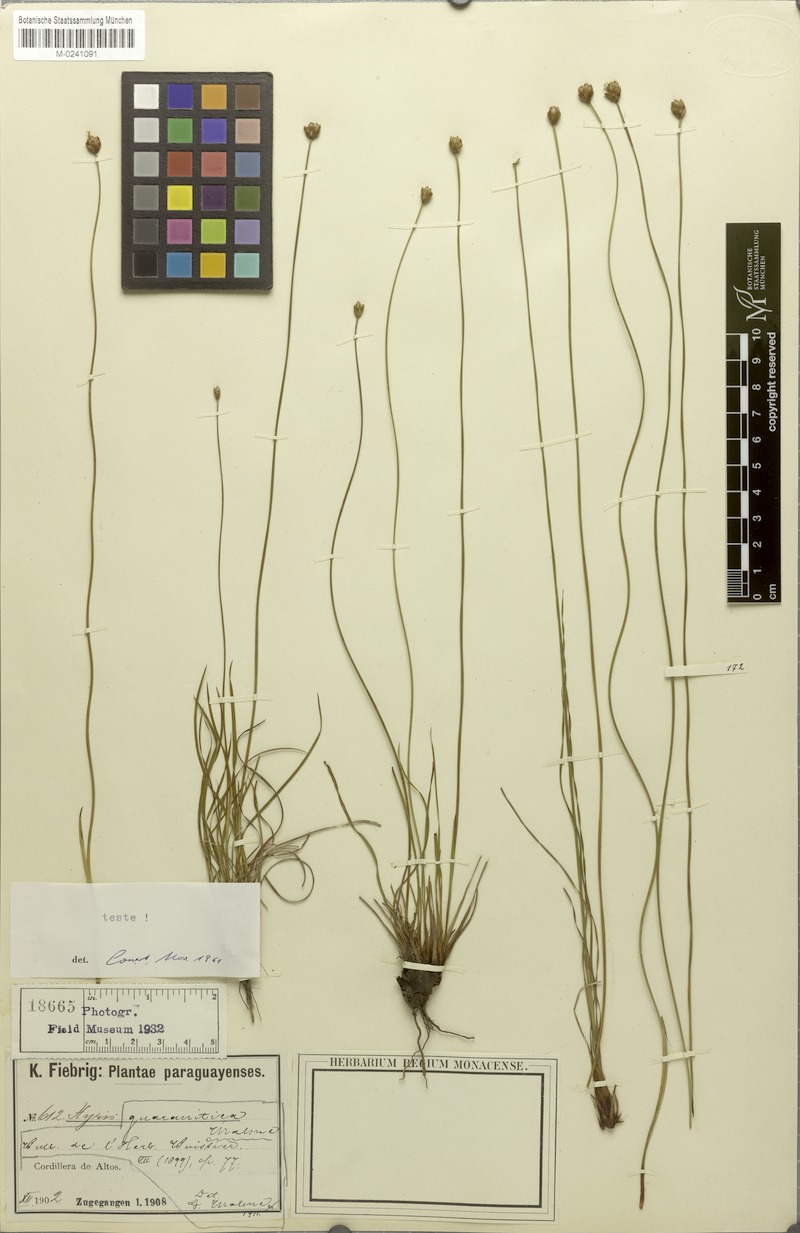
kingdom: Plantae
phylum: Tracheophyta
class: Liliopsida
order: Poales
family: Xyridaceae
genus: Xyris
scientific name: Xyris guaranitica
